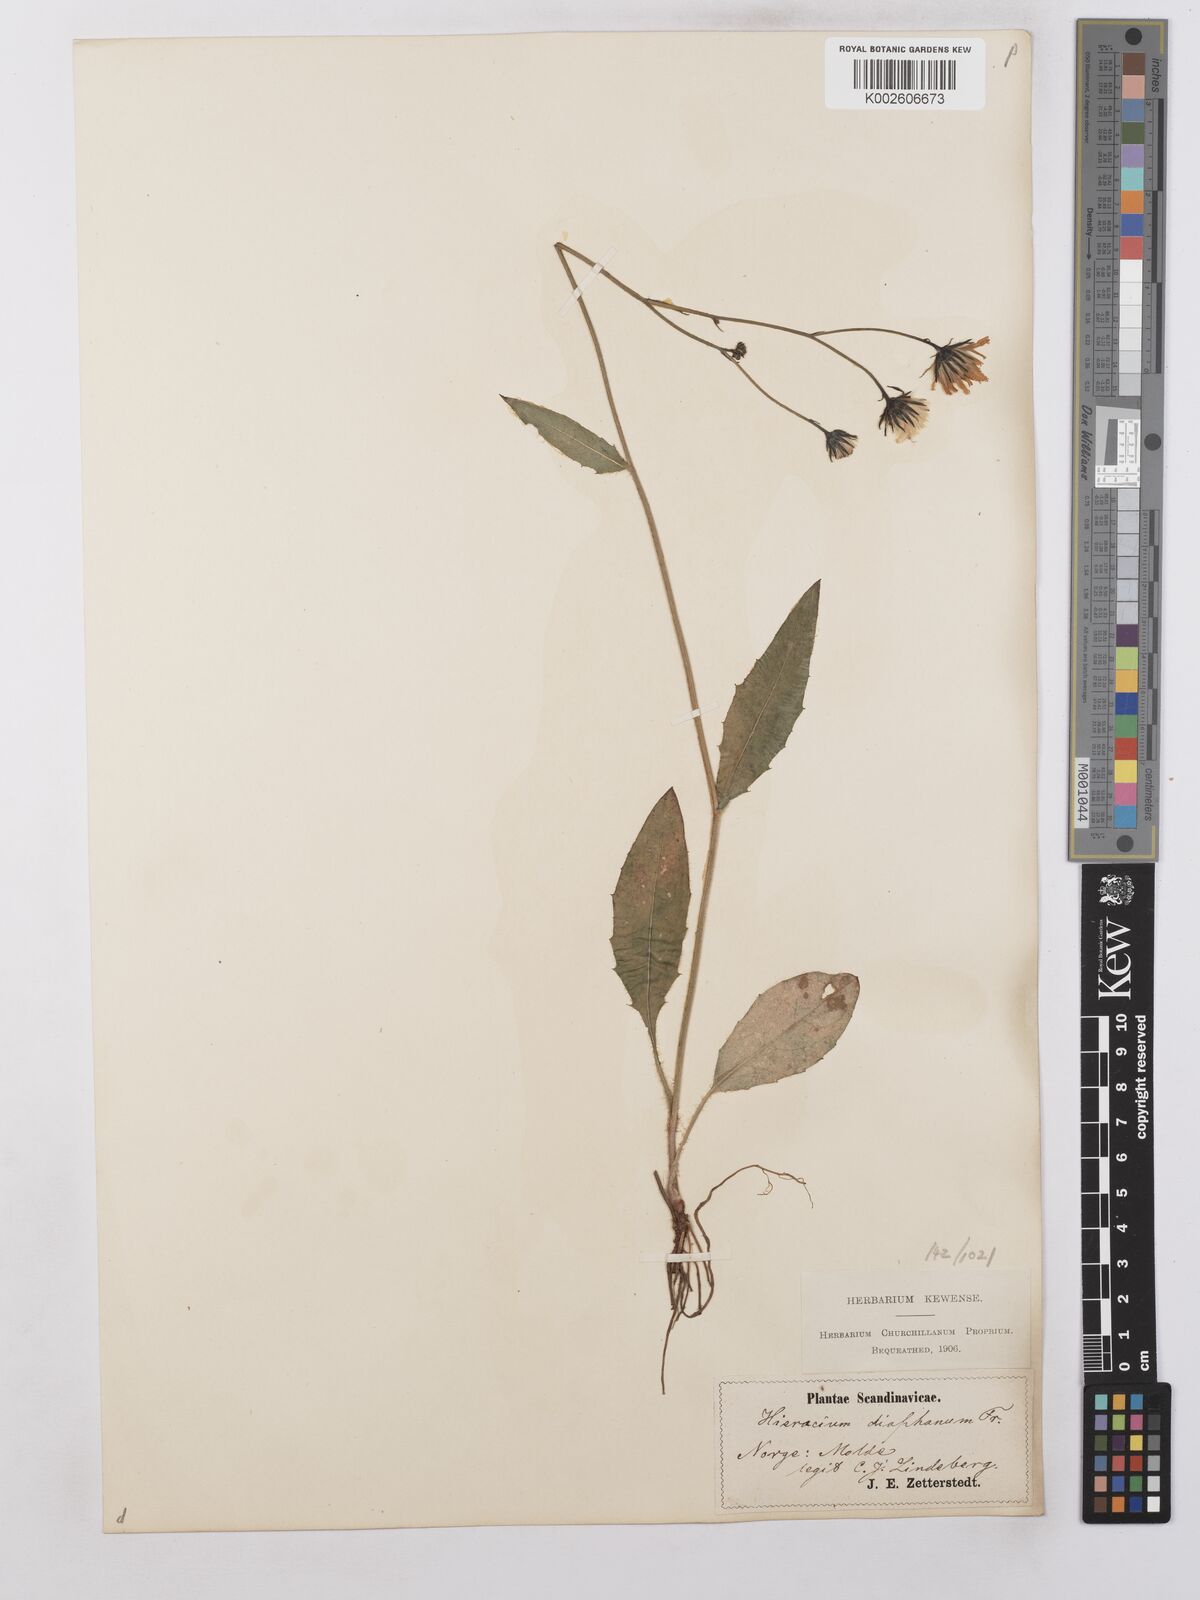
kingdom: Plantae
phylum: Tracheophyta
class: Magnoliopsida
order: Asterales
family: Asteraceae
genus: Hieracium
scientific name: Hieracium lachenalii
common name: Common hawkweed
